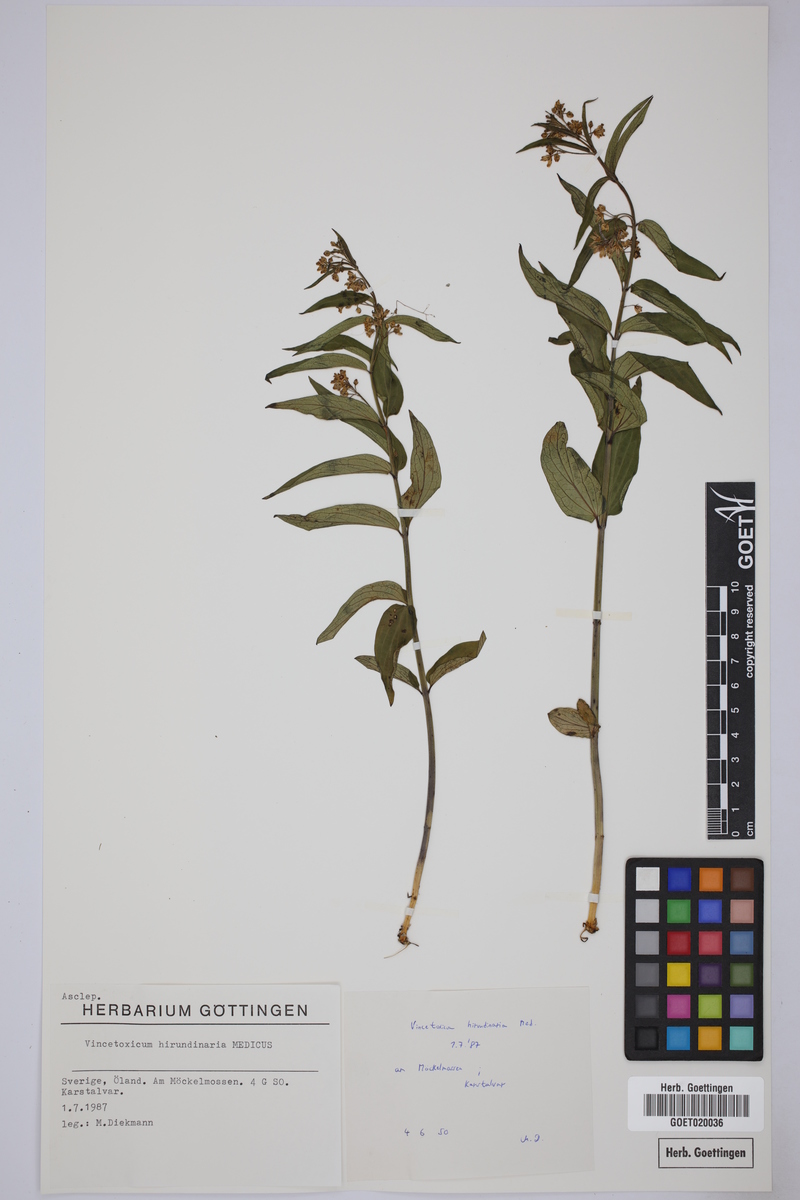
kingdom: Plantae
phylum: Tracheophyta
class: Magnoliopsida
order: Gentianales
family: Apocynaceae
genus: Vincetoxicum
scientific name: Vincetoxicum hirundinaria
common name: White swallowwort
